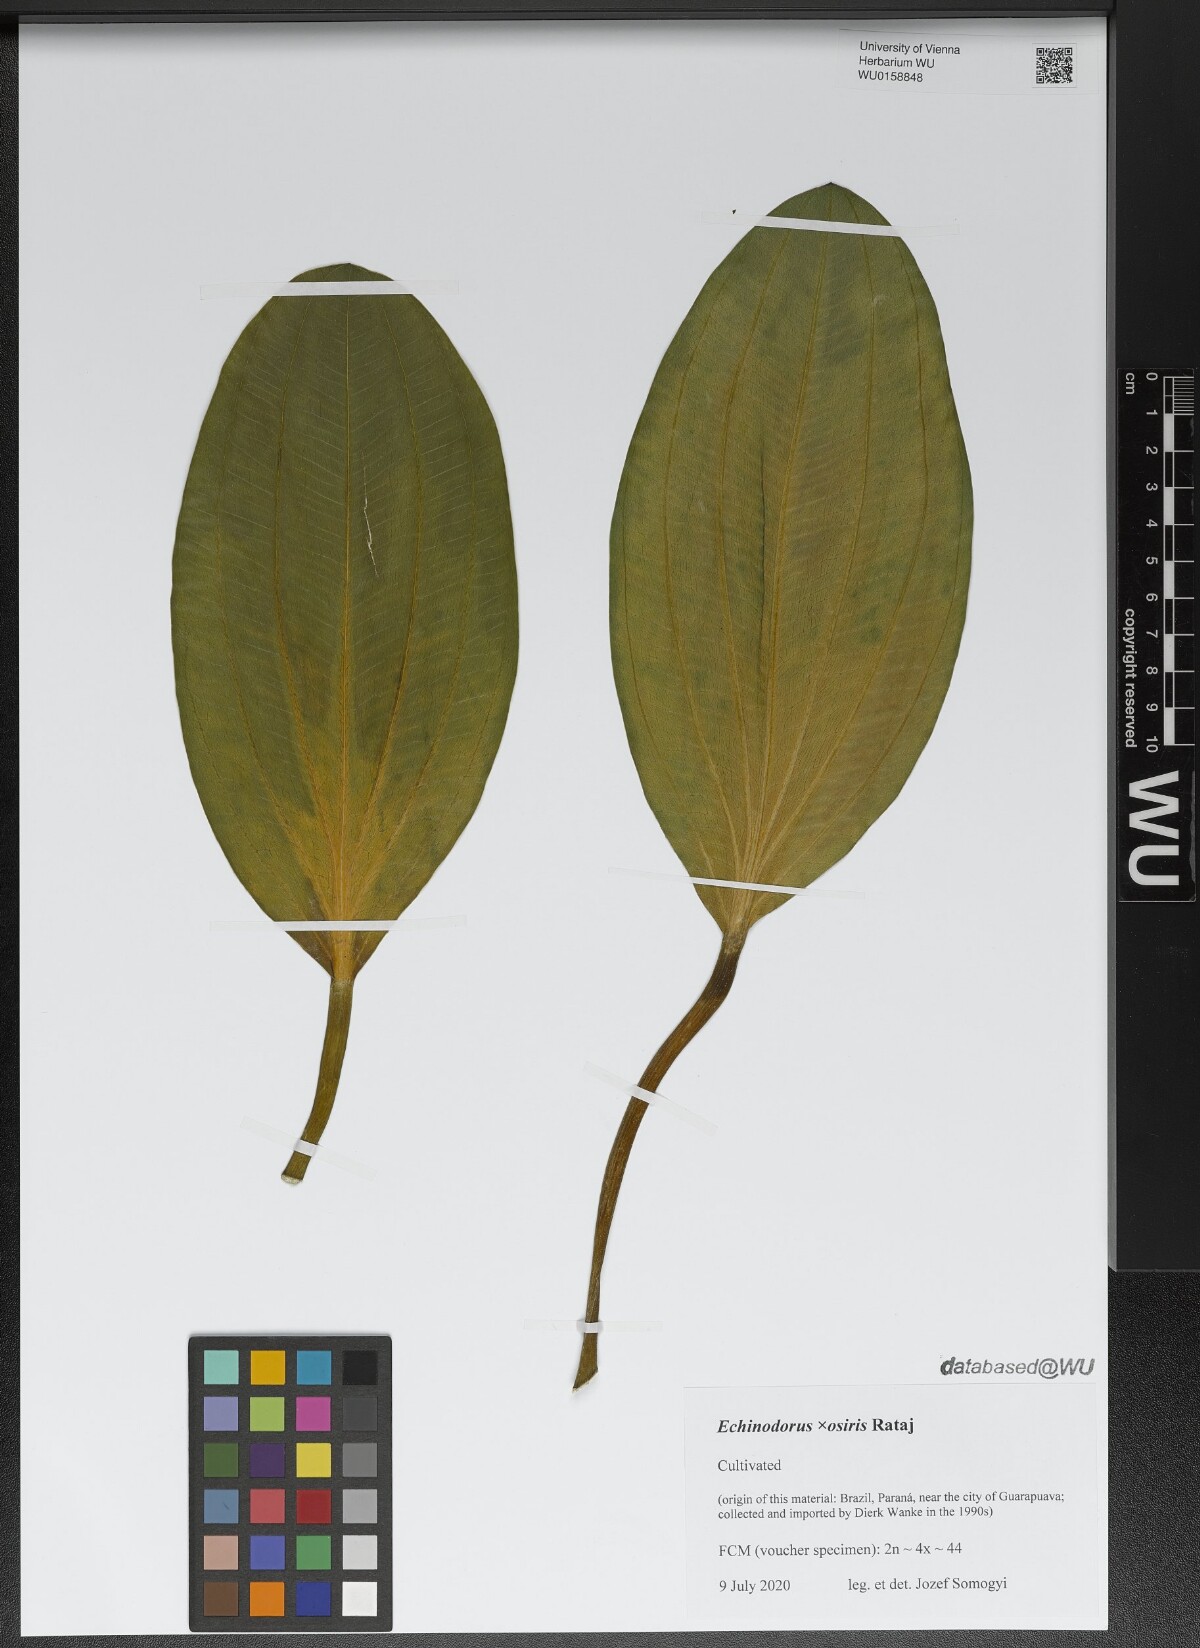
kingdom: Plantae
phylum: Tracheophyta
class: Liliopsida
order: Alismatales
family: Alismataceae
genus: Aquarius
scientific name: Aquarius uruguayensis
